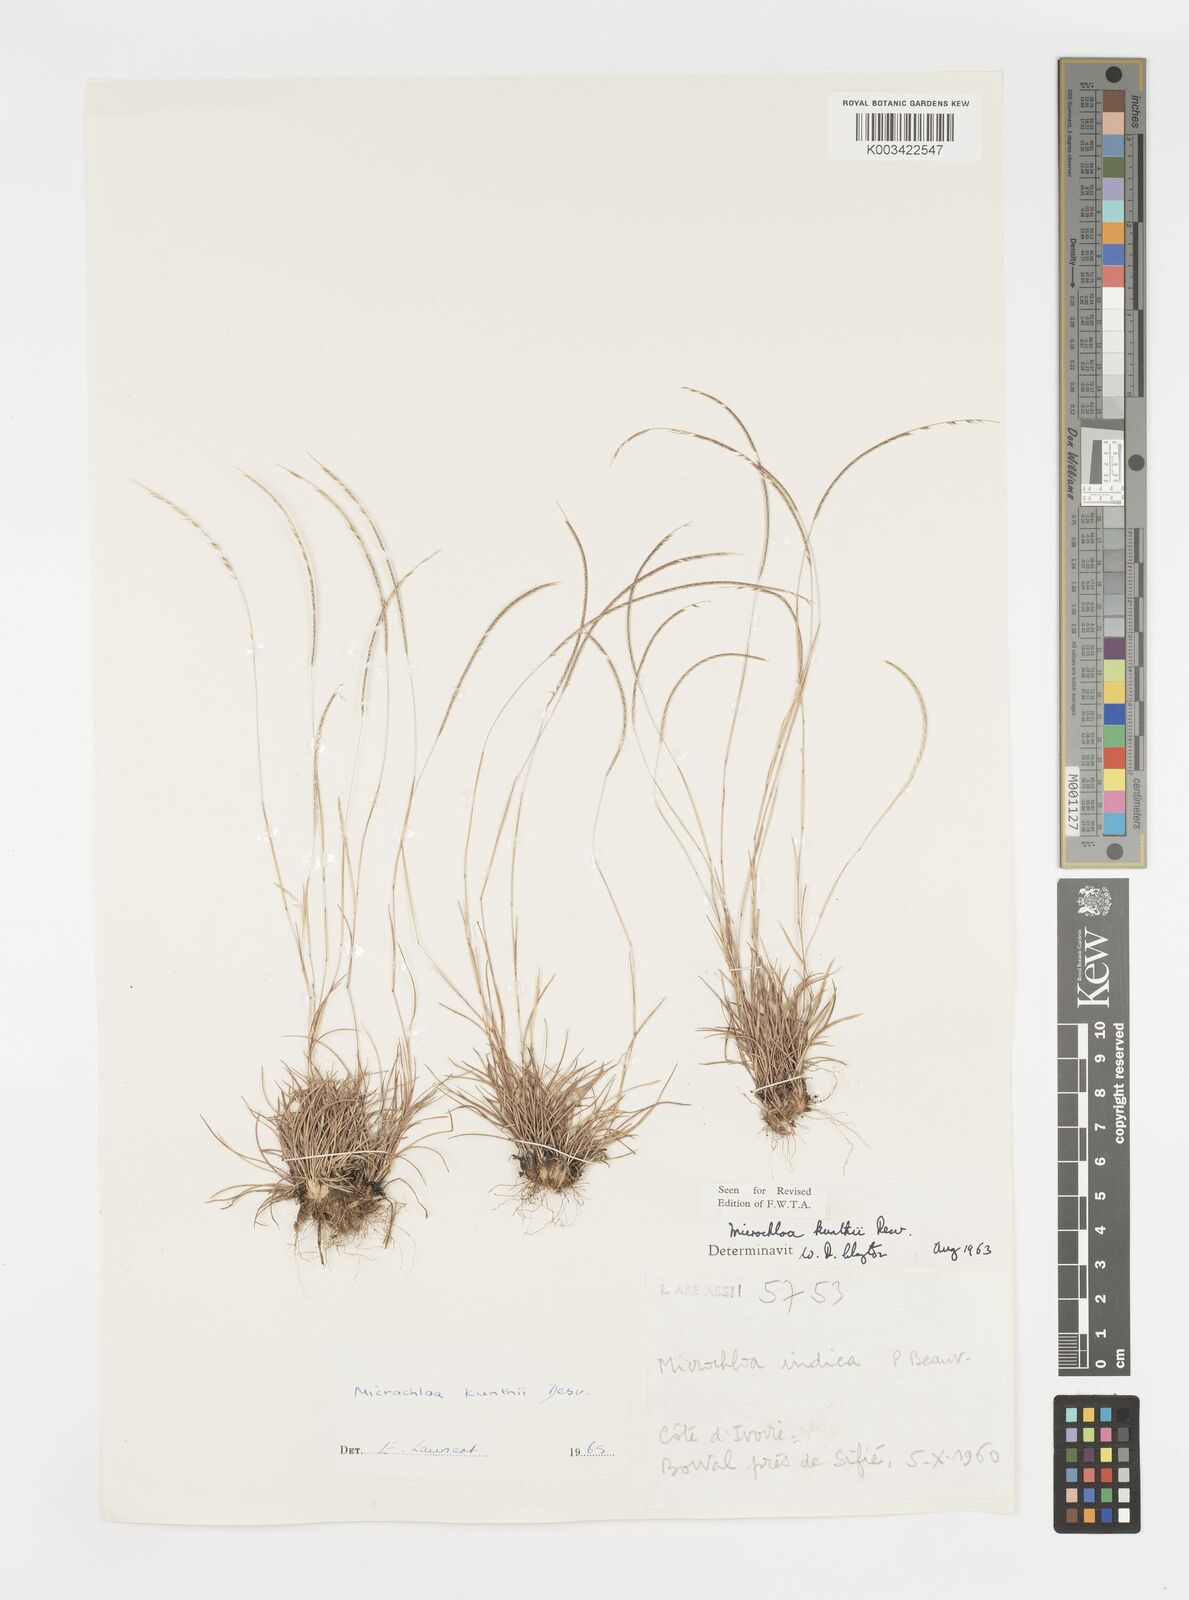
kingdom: Plantae
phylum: Tracheophyta
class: Liliopsida
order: Poales
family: Poaceae
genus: Microchloa
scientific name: Microchloa kunthii
